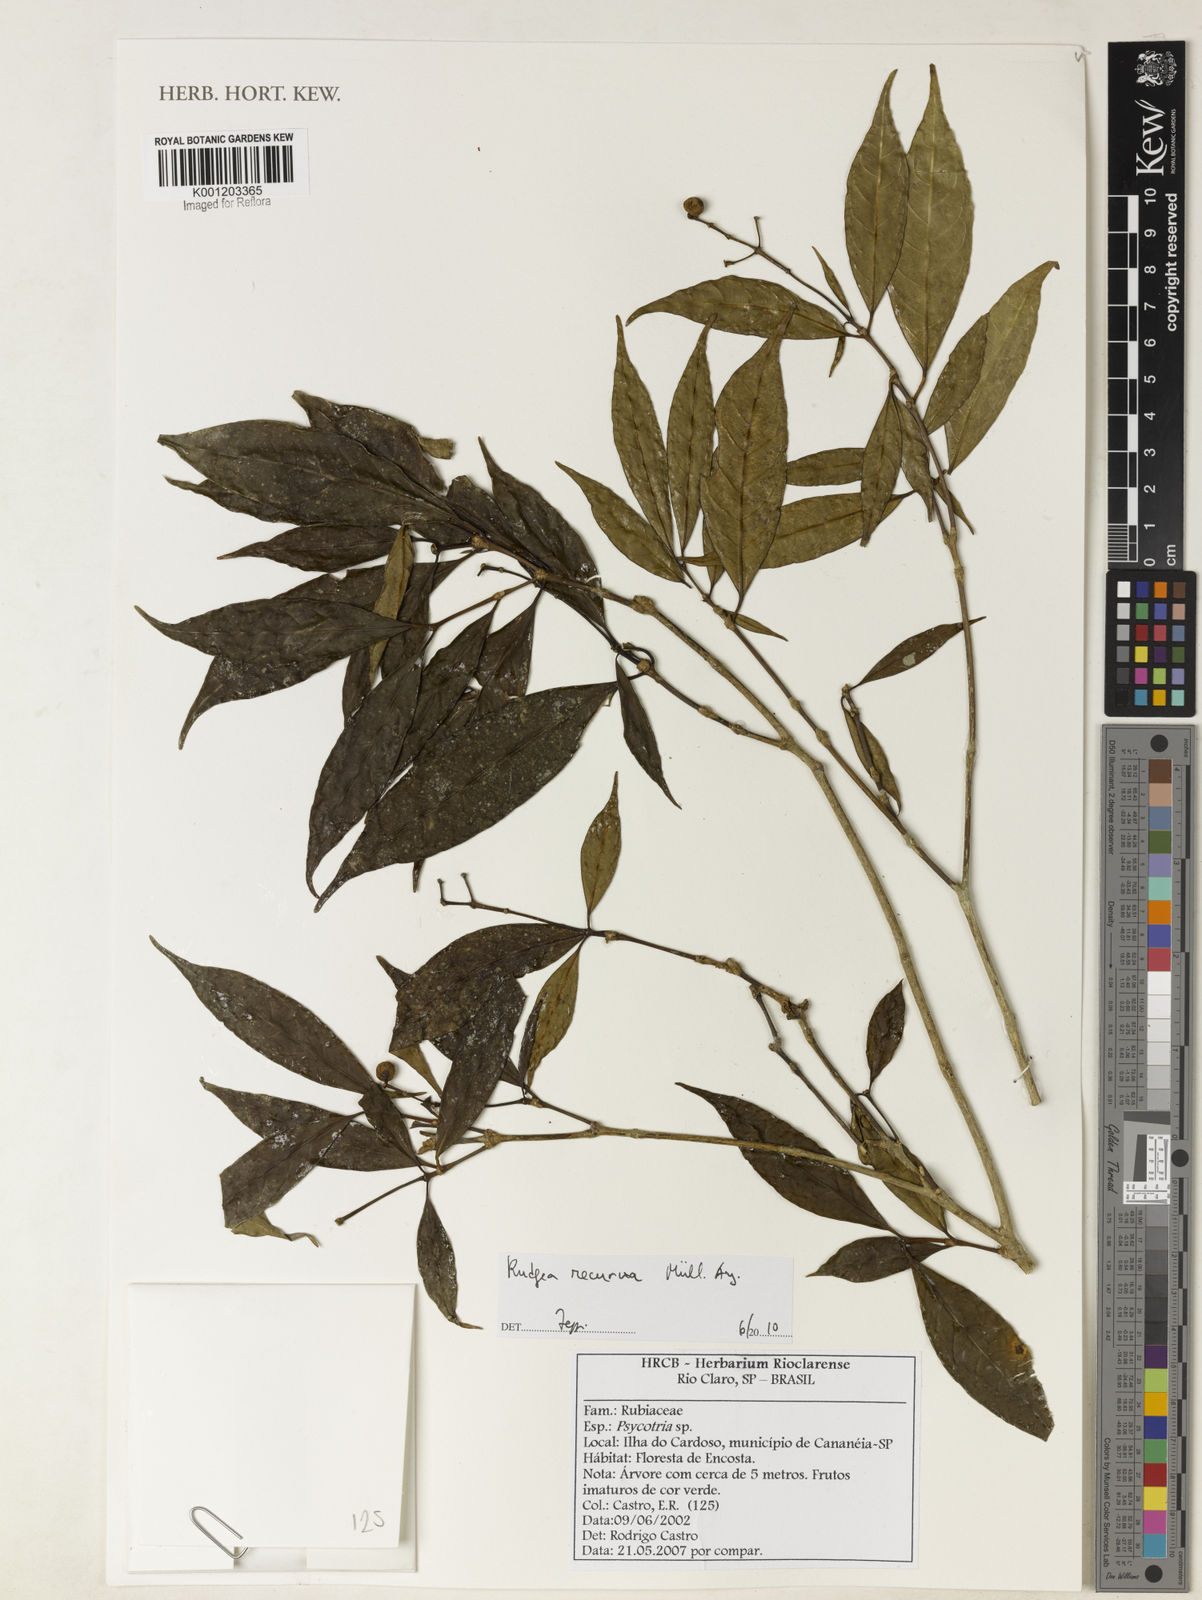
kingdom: Plantae
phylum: Tracheophyta
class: Magnoliopsida
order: Gentianales
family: Rubiaceae
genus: Rudgea
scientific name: Rudgea
